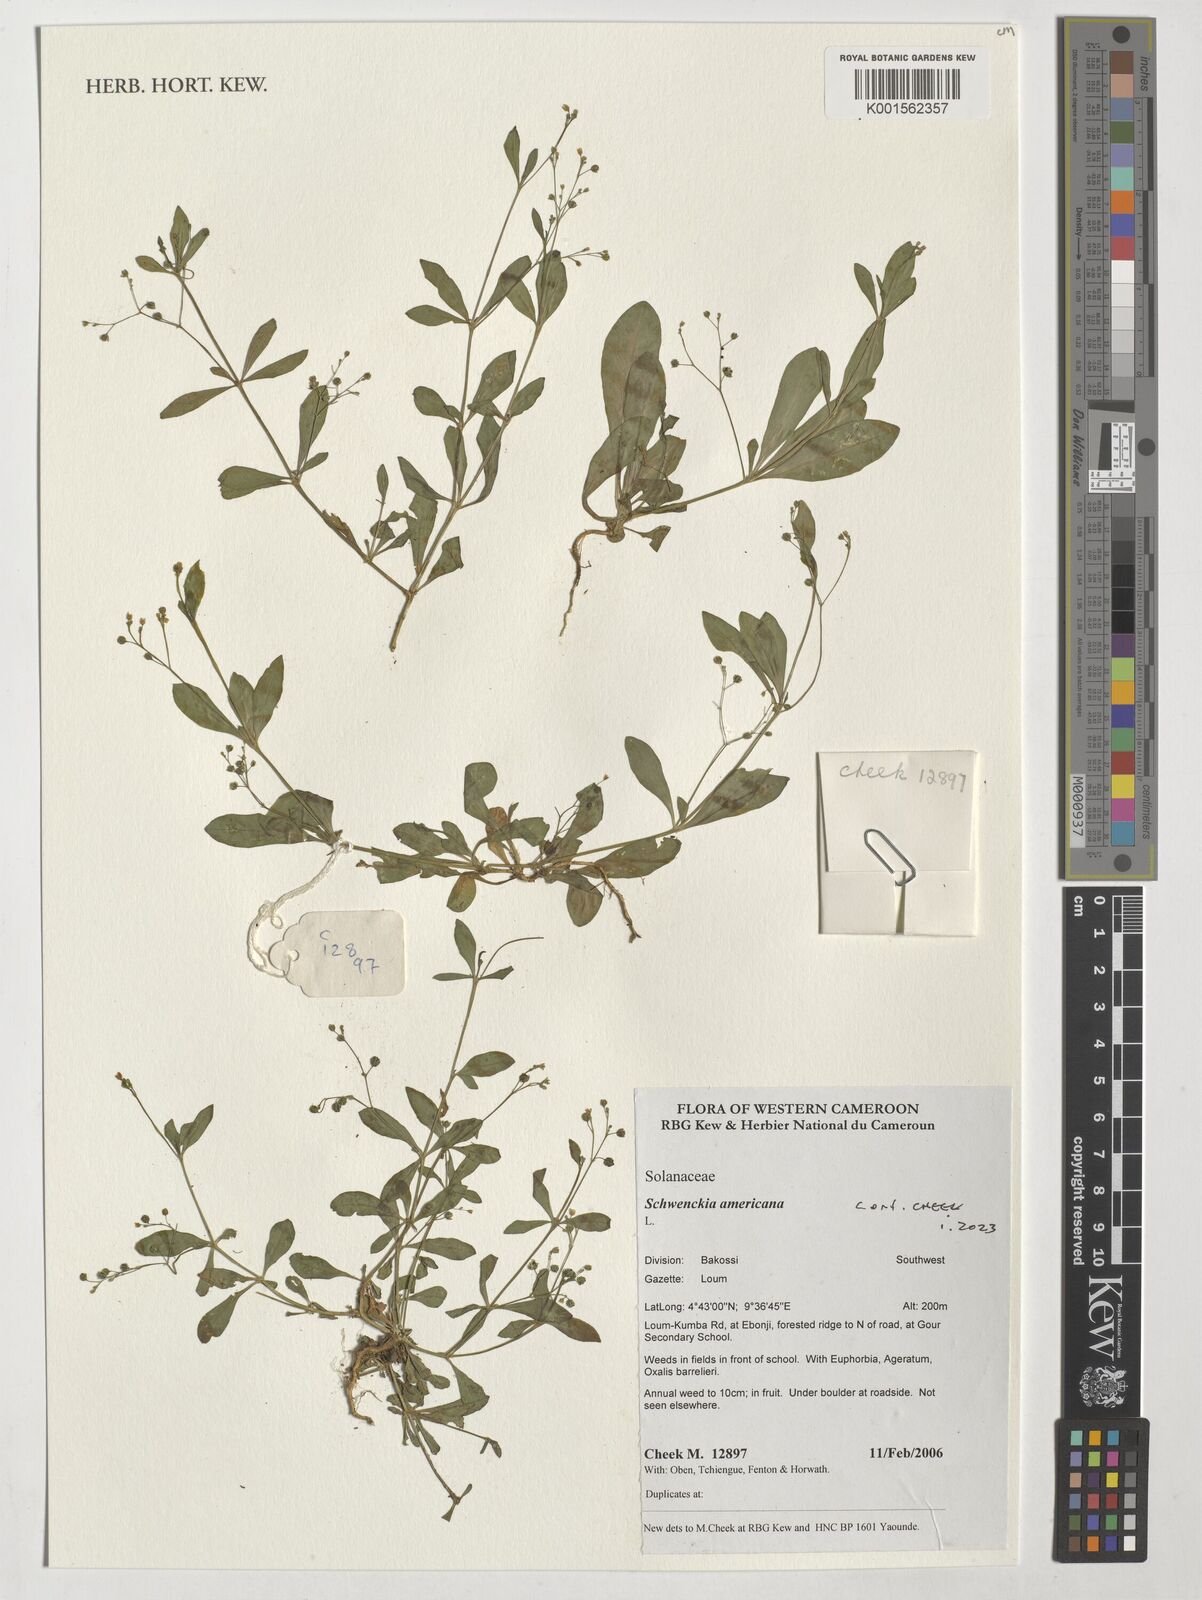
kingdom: Plantae
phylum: Tracheophyta
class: Magnoliopsida
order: Solanales
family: Solanaceae
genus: Schwenckia
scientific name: Schwenckia americana
